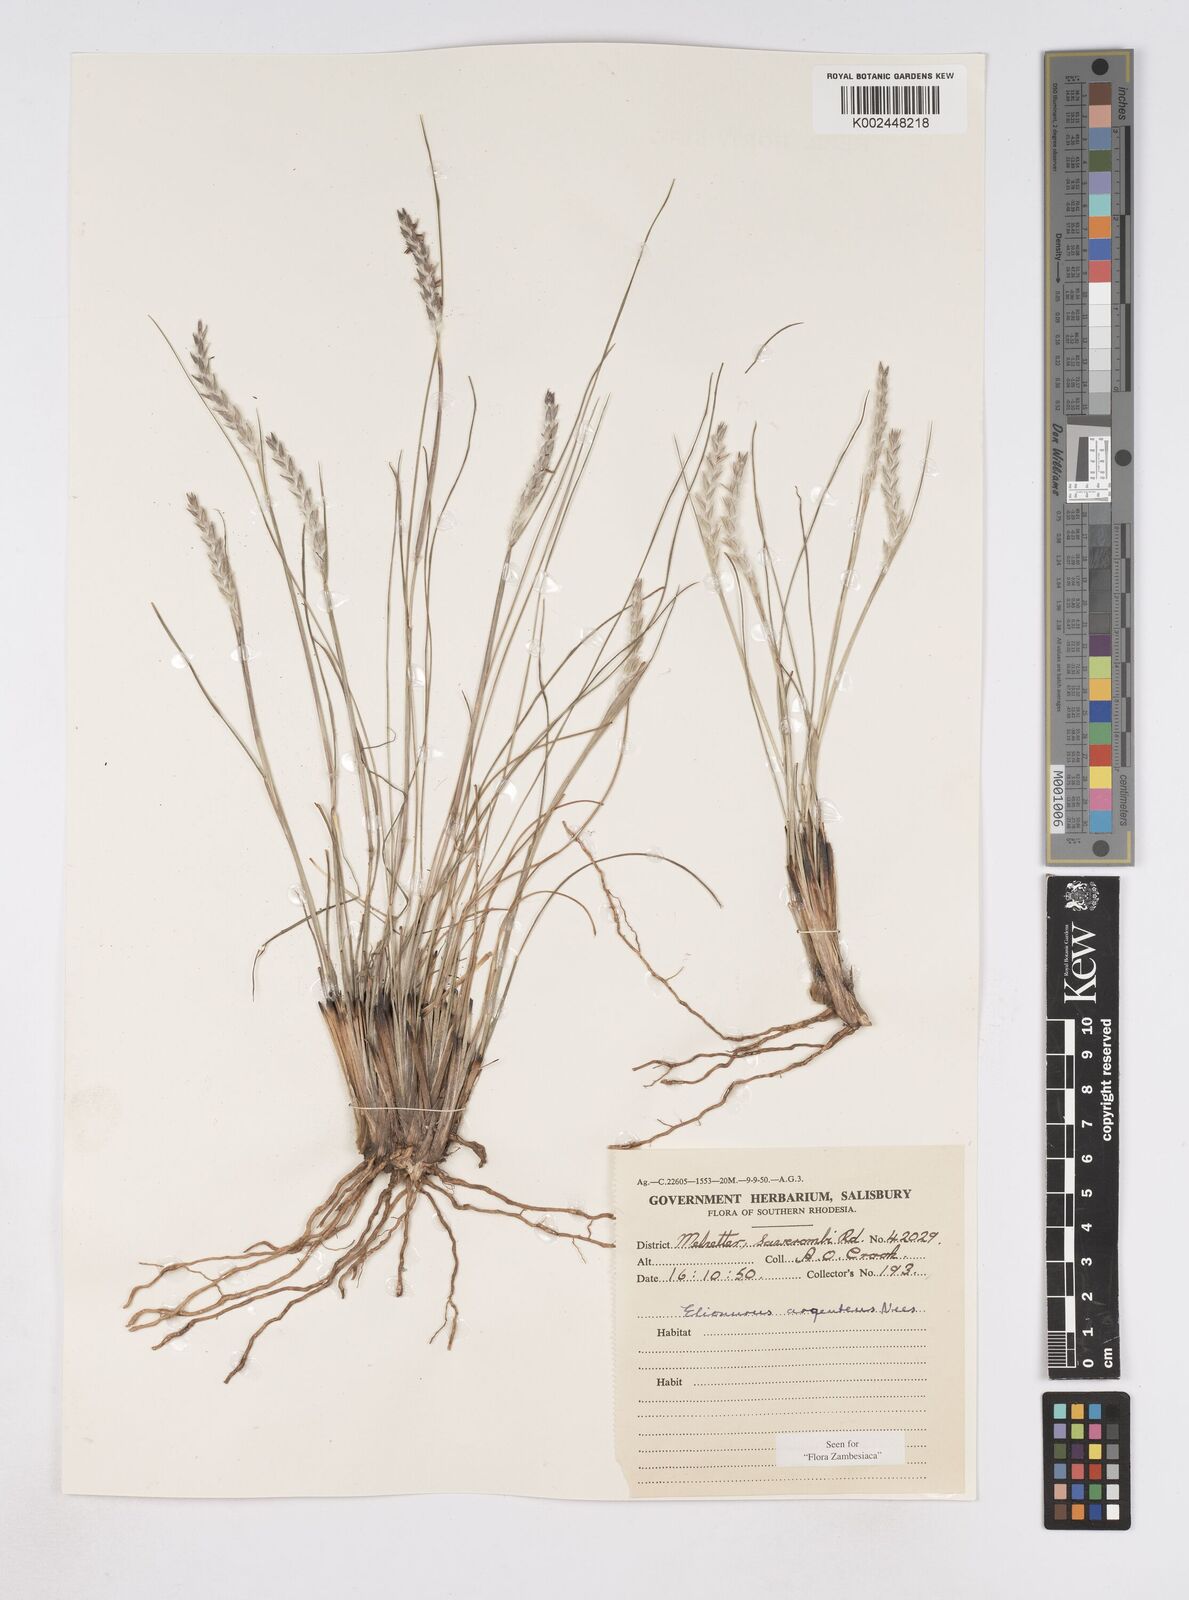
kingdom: Plantae
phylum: Tracheophyta
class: Liliopsida
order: Poales
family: Poaceae
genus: Elionurus
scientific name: Elionurus muticus
